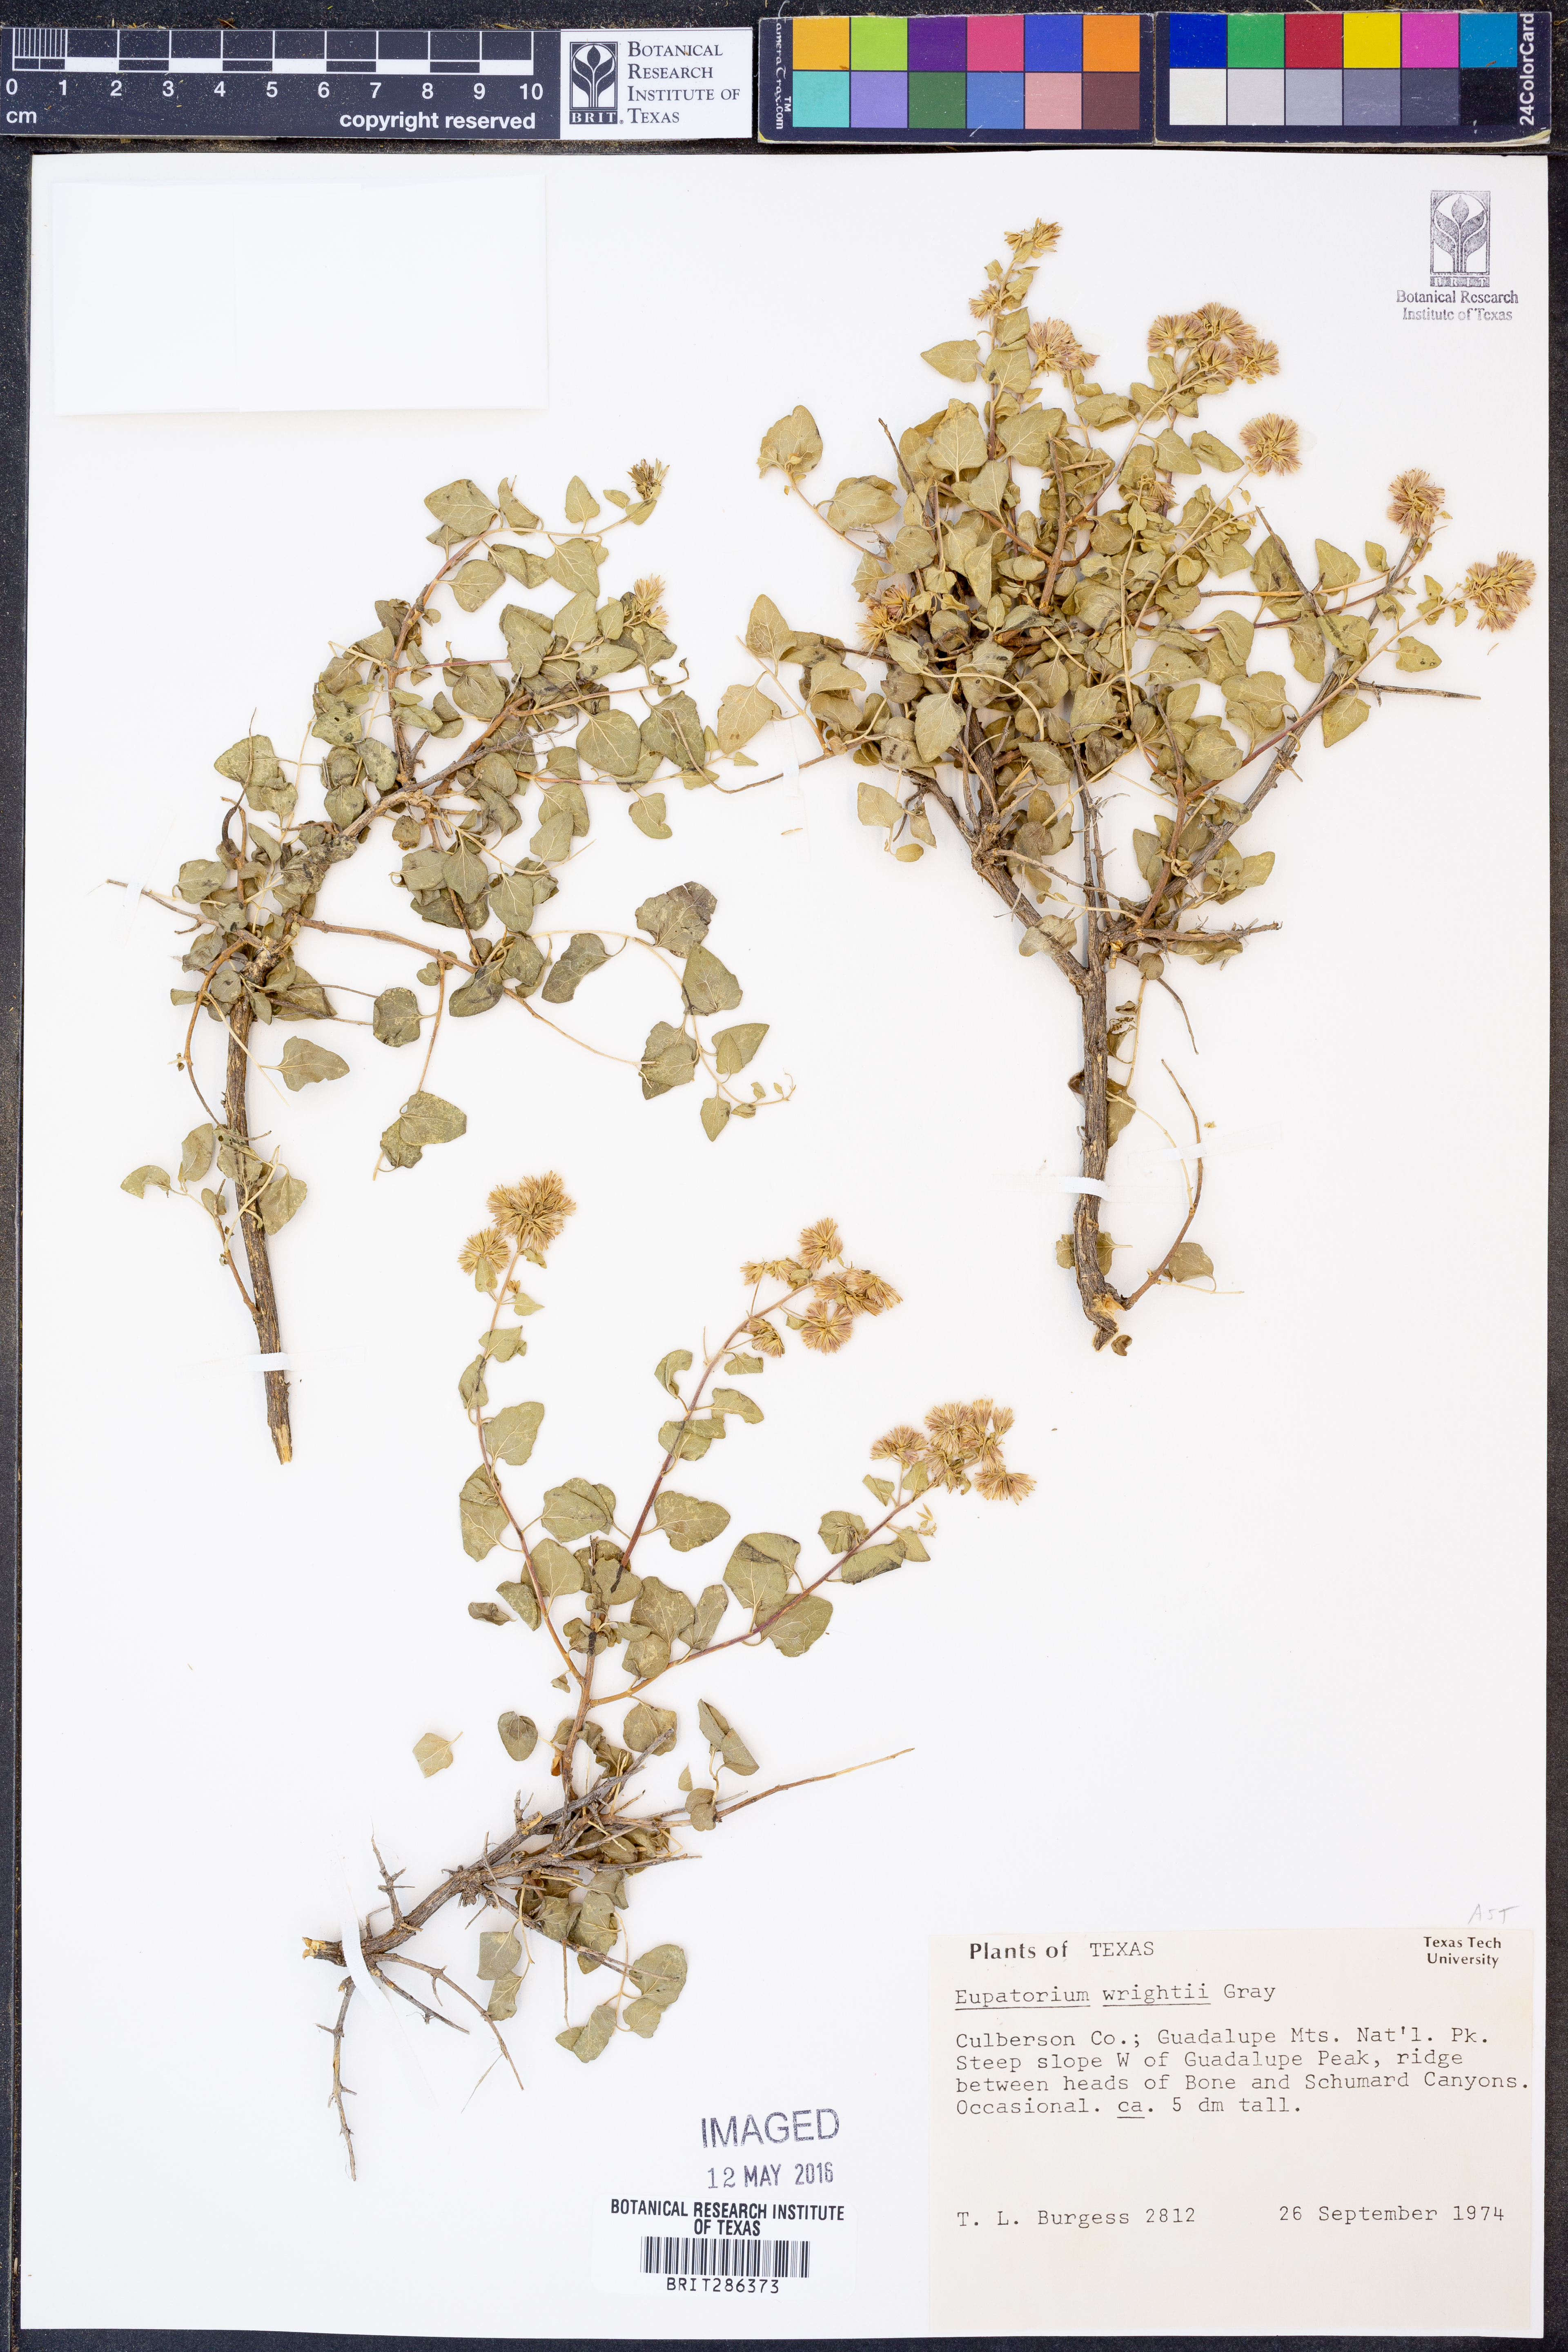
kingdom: Plantae
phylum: Tracheophyta
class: Magnoliopsida
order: Asterales
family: Asteraceae
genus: Ageratina
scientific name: Ageratina wrightii
